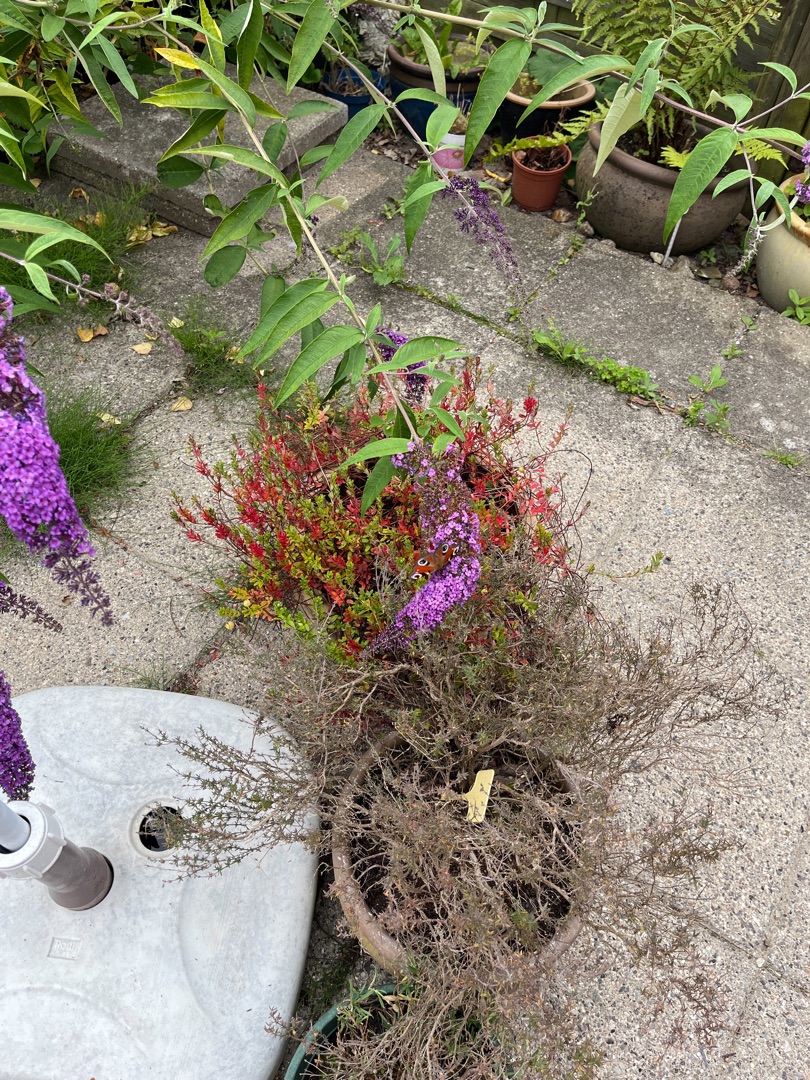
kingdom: Animalia
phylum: Arthropoda
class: Insecta
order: Lepidoptera
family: Nymphalidae
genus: Aglais
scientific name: Aglais io
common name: Dagpåfugleøje
